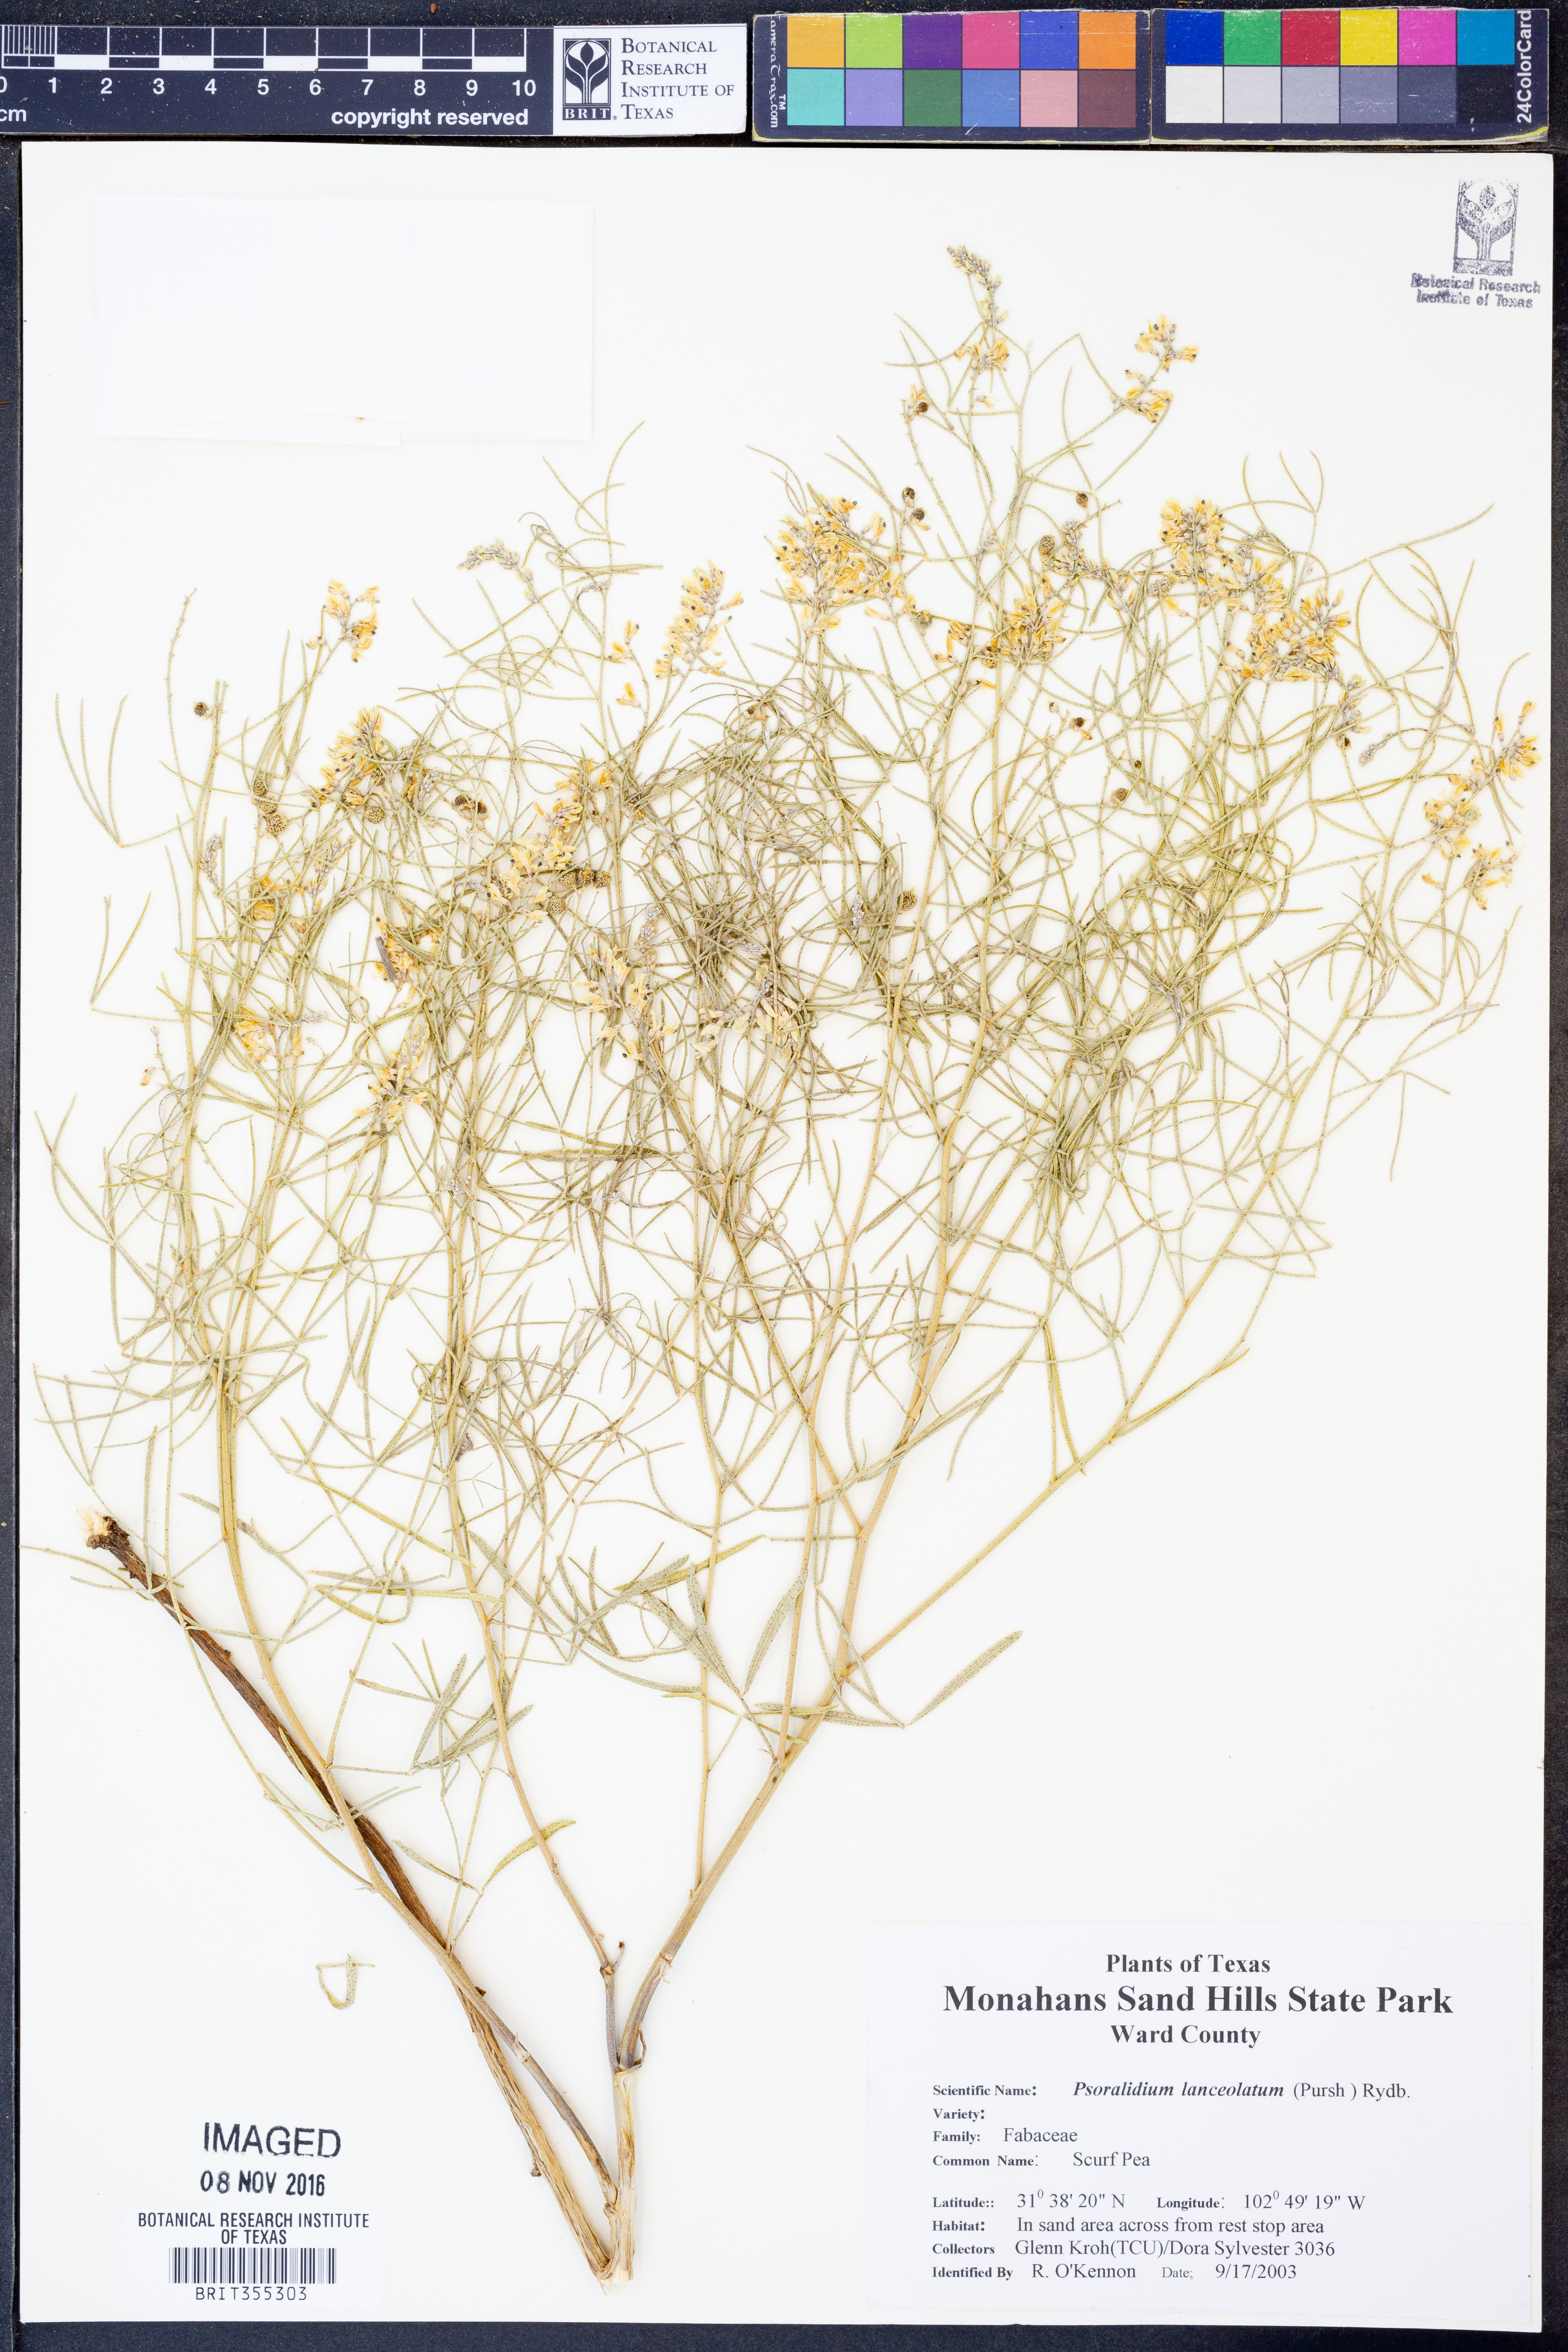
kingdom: Plantae
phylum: Tracheophyta
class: Magnoliopsida
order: Fabales
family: Fabaceae
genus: Ladeania
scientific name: Ladeania lanceolata
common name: Dune scurf-pea
